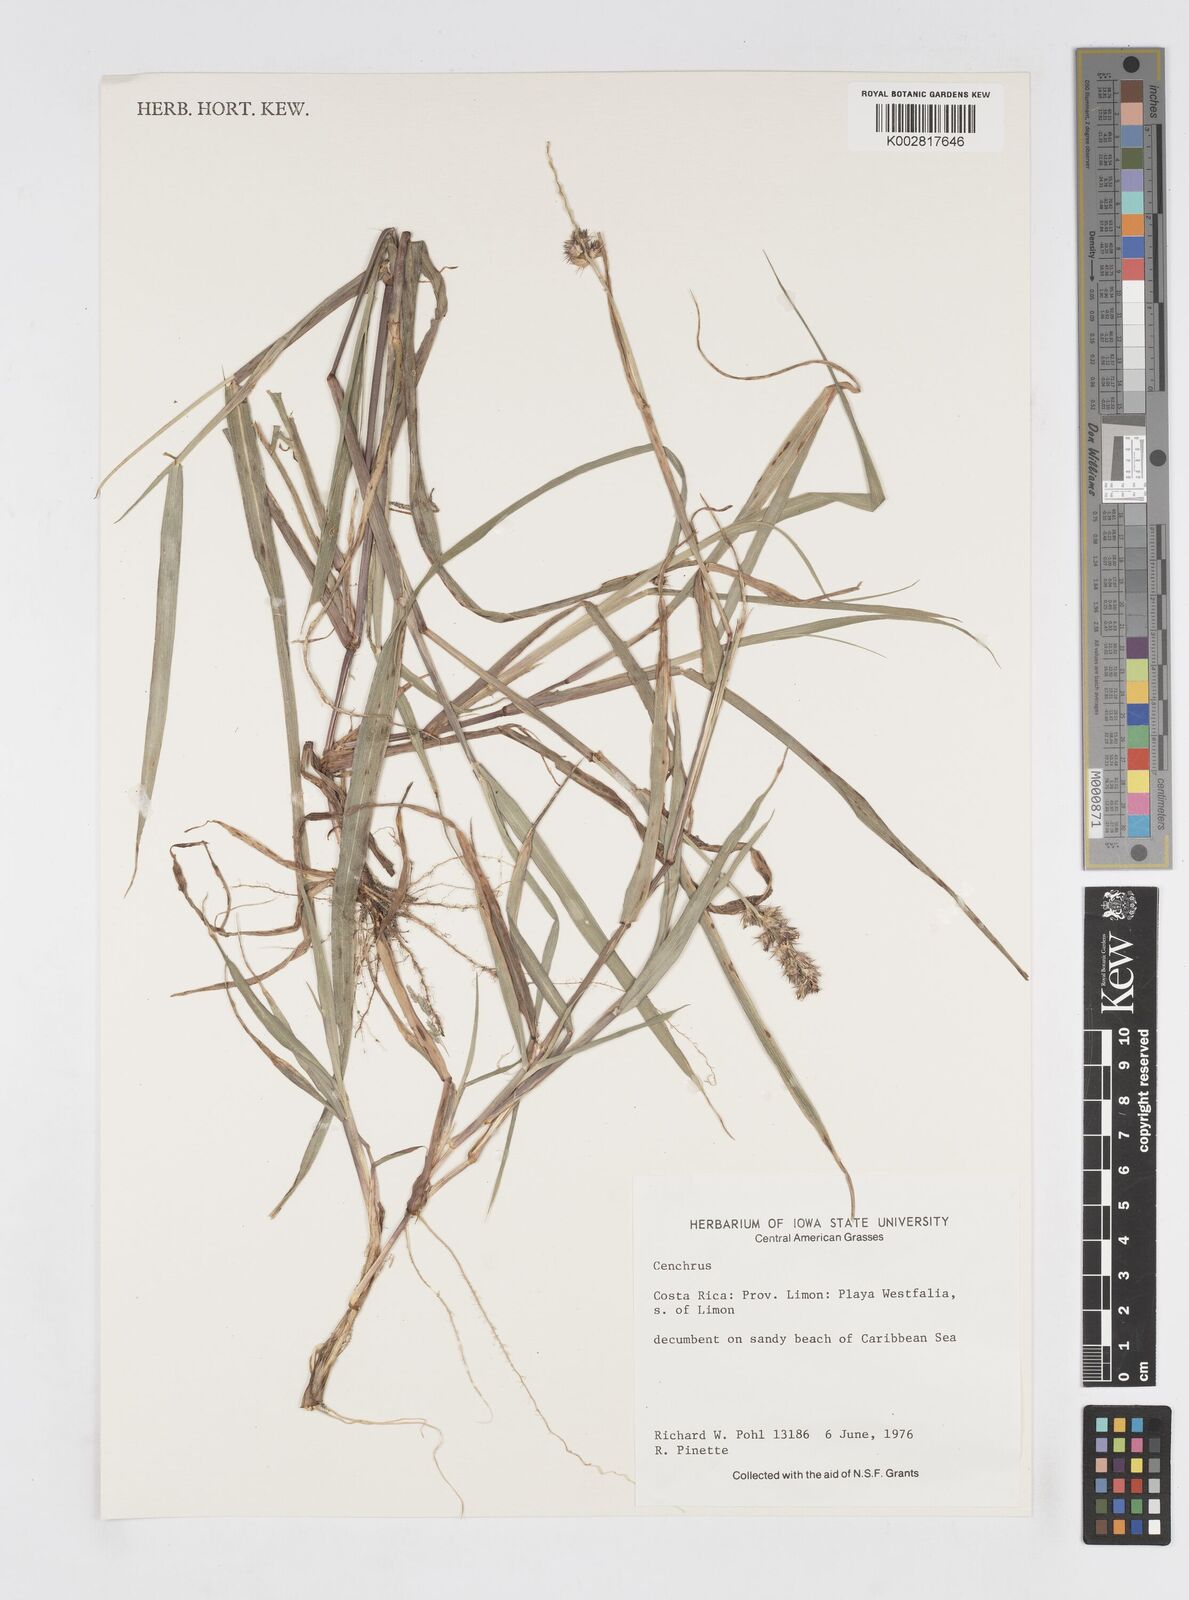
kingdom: Plantae
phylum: Tracheophyta
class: Liliopsida
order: Poales
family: Poaceae
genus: Cenchrus
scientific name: Cenchrus
